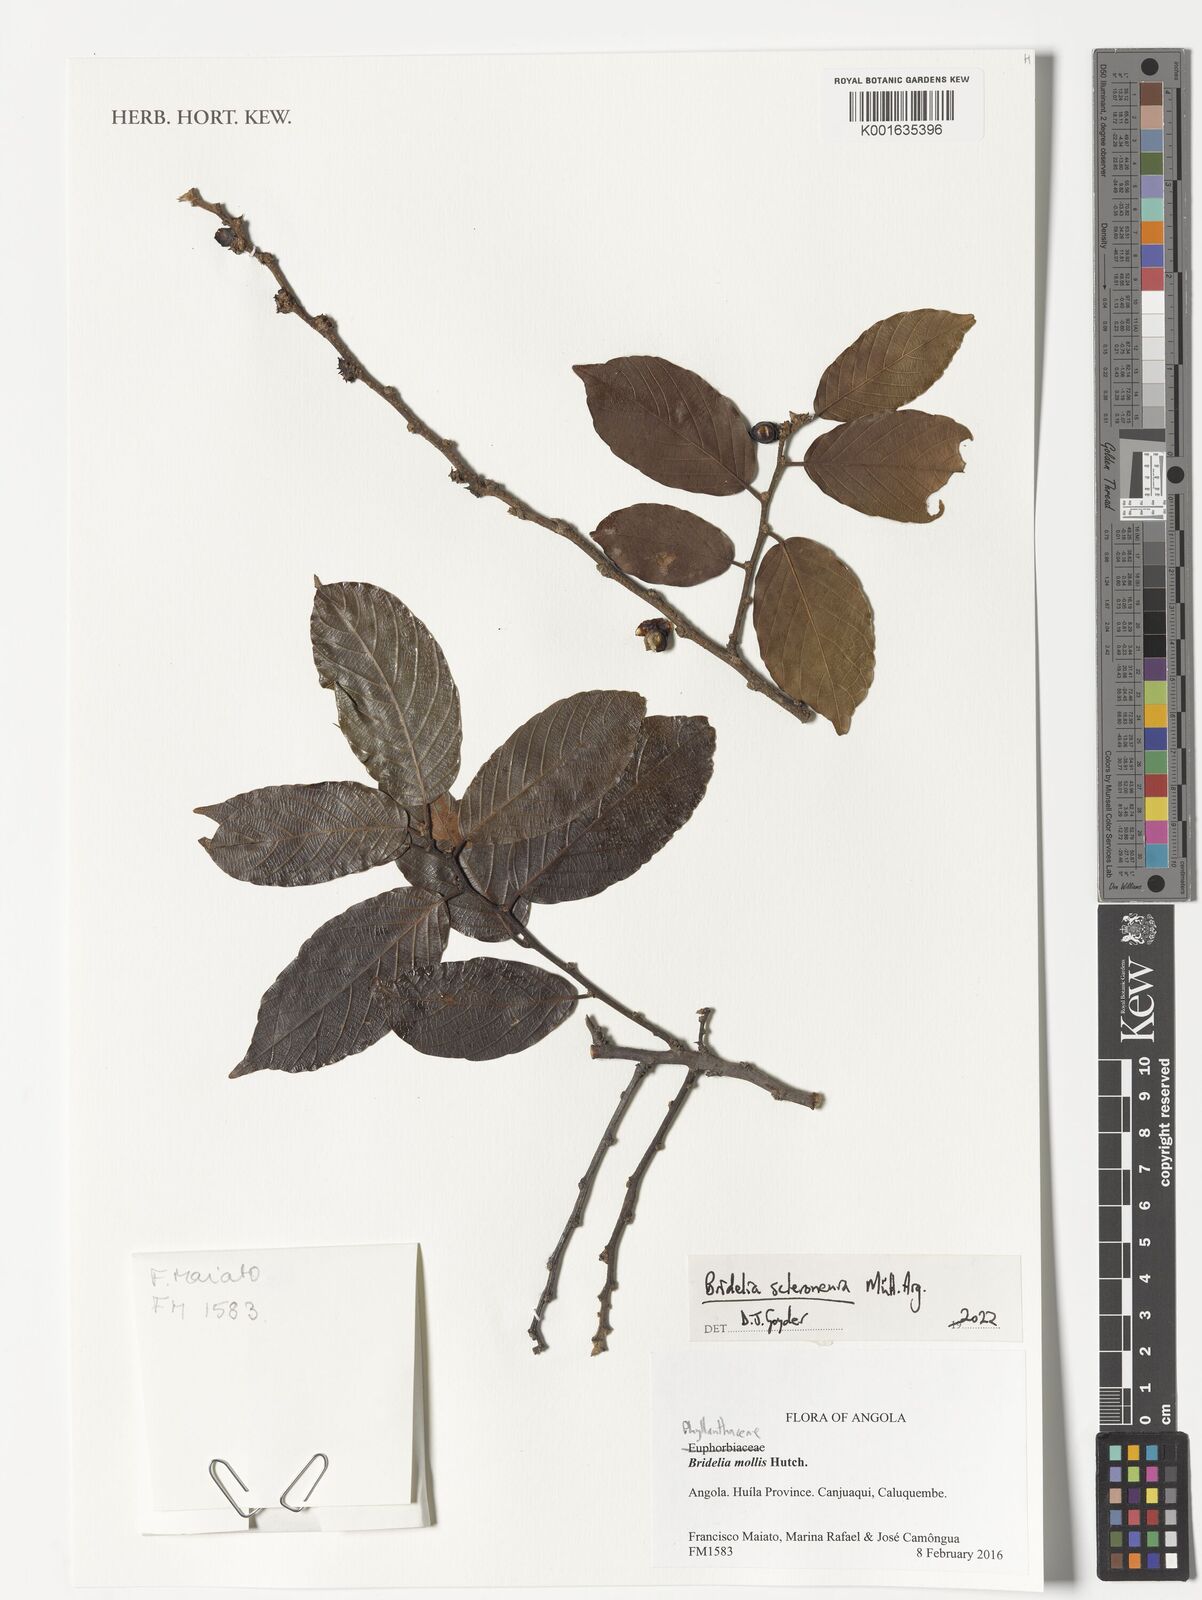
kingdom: Plantae
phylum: Tracheophyta
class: Magnoliopsida
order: Malpighiales
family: Phyllanthaceae
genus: Bridelia
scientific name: Bridelia scleroneura
